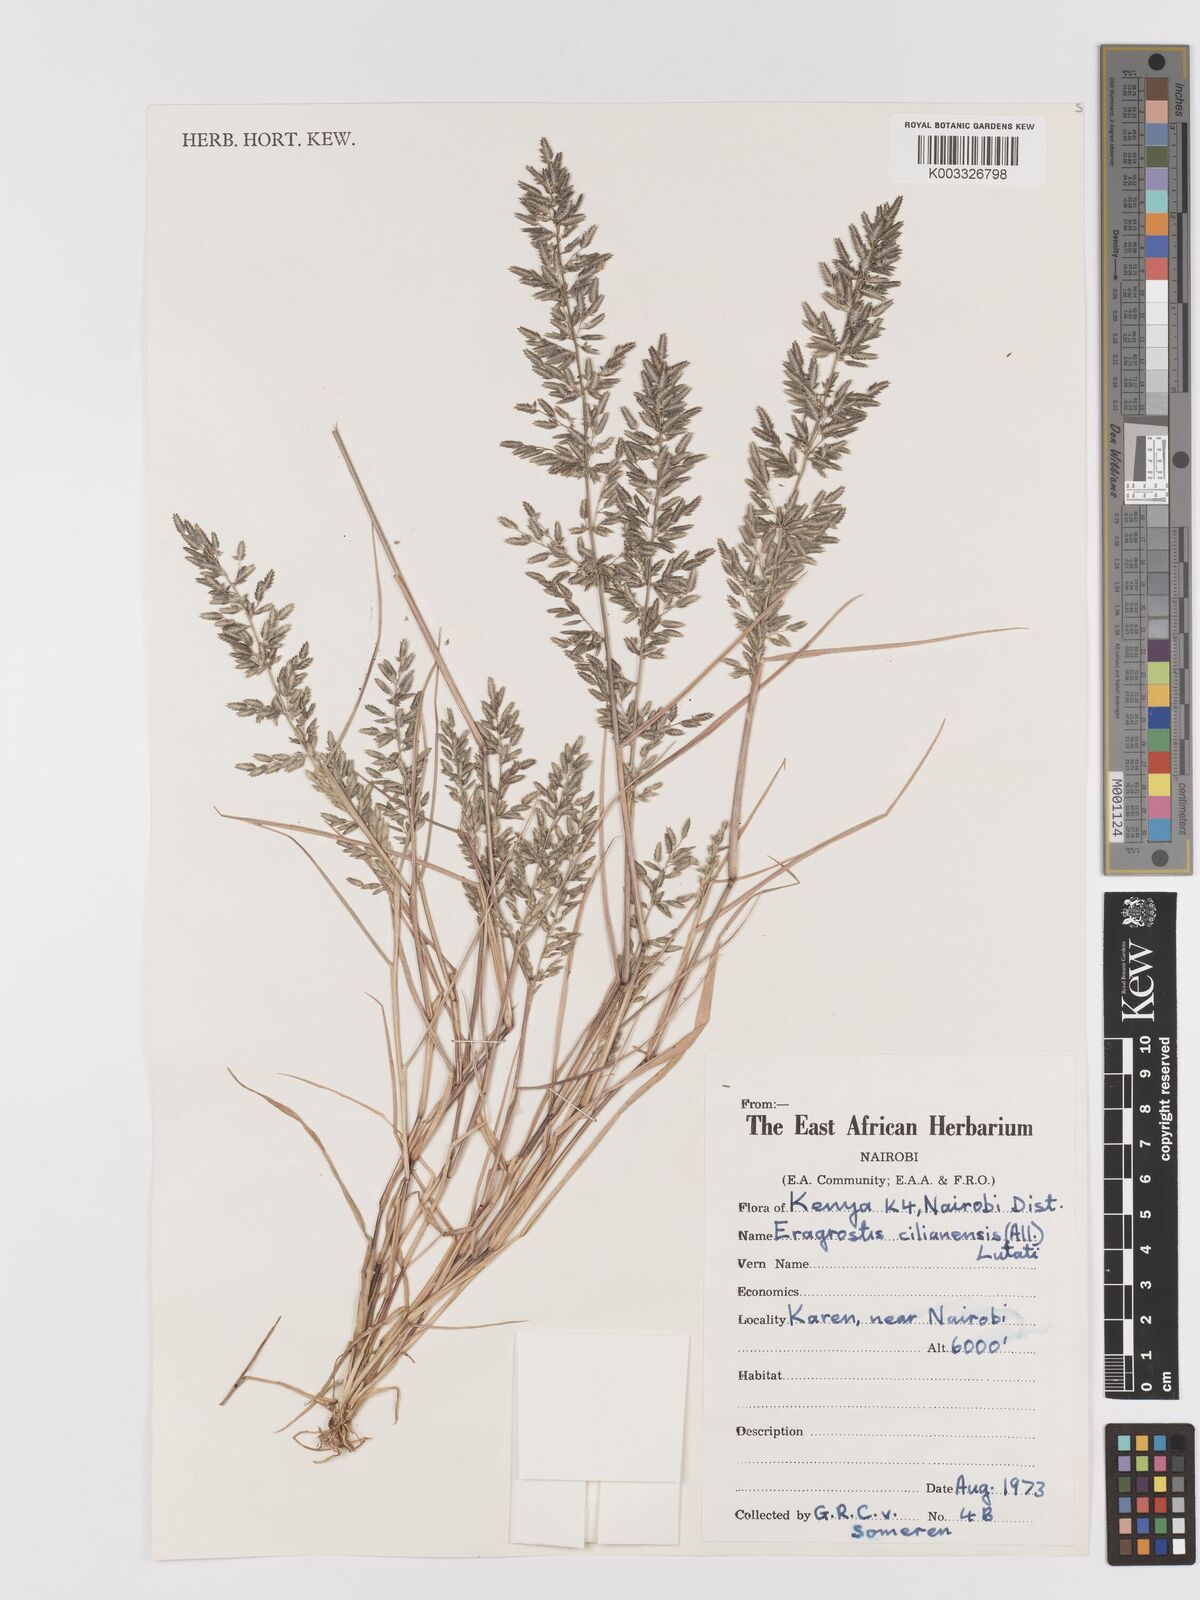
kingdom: Plantae
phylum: Tracheophyta
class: Liliopsida
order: Poales
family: Poaceae
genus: Eragrostis
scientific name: Eragrostis cilianensis
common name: Stinkgrass
